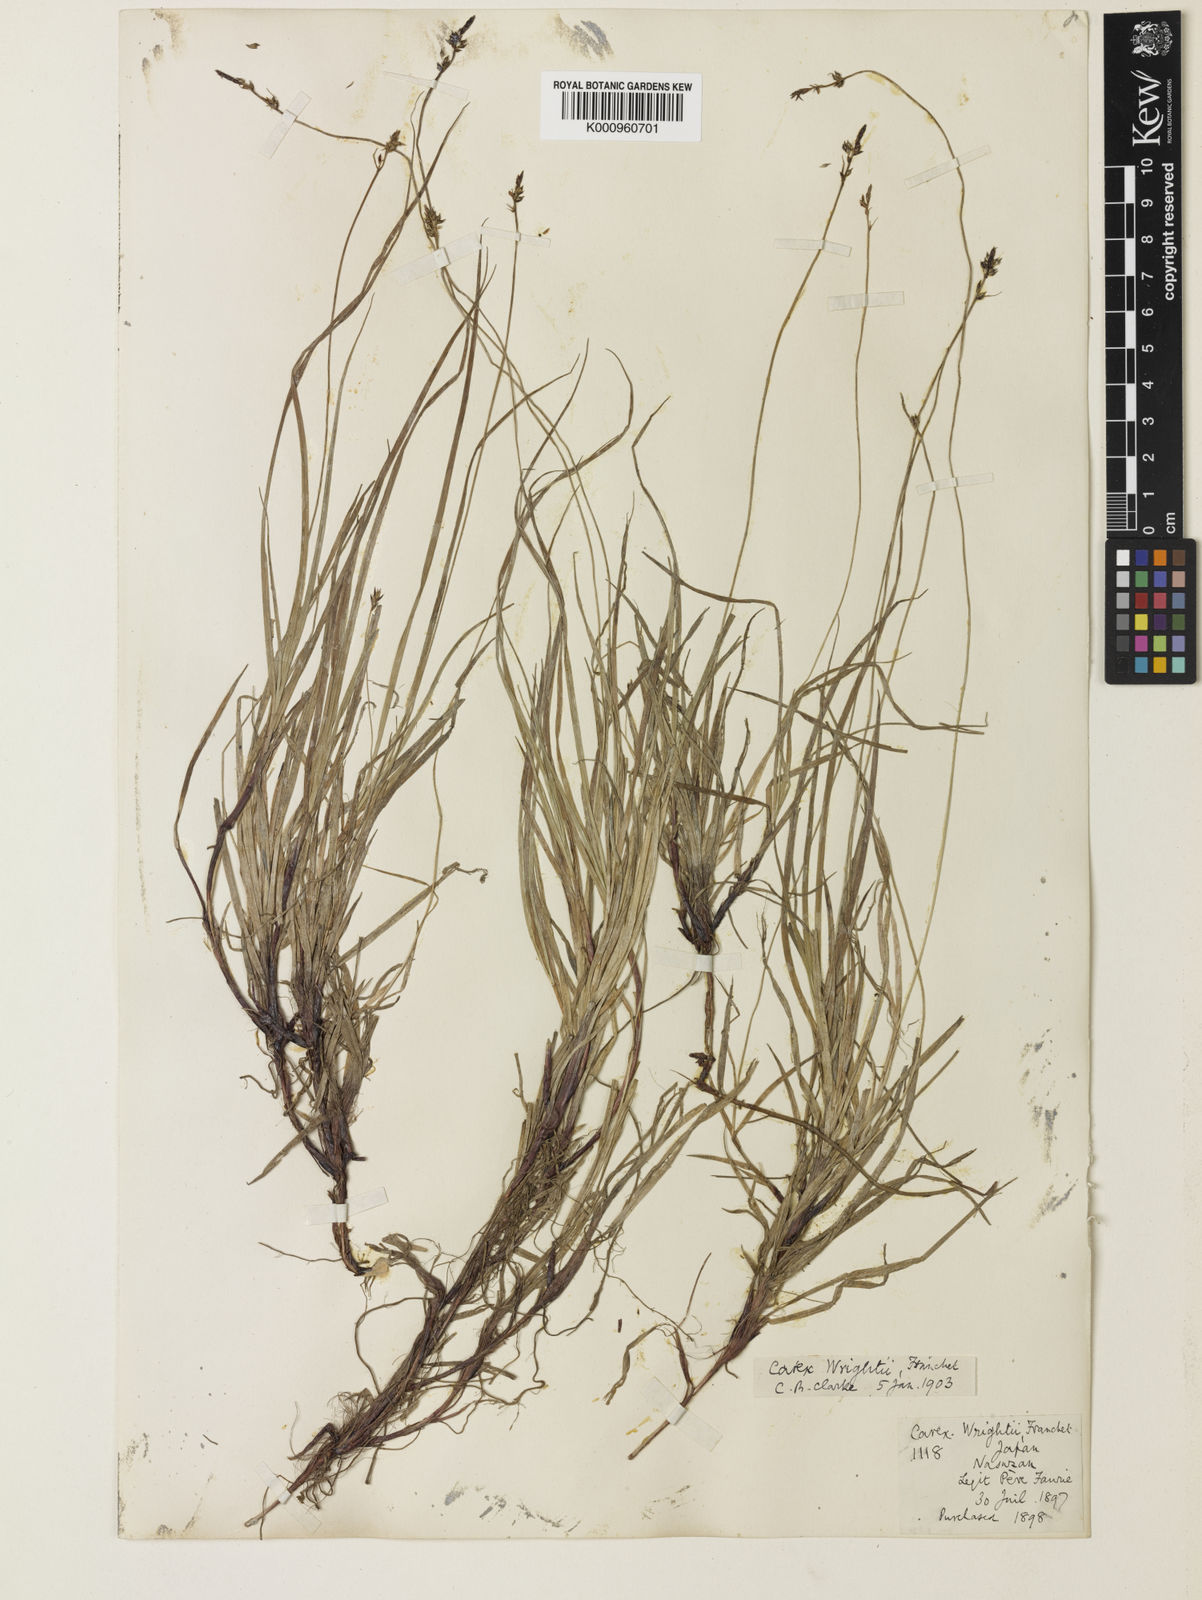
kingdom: Plantae
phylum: Tracheophyta
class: Liliopsida
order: Poales
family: Cyperaceae
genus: Carex
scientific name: Carex oxyandra
